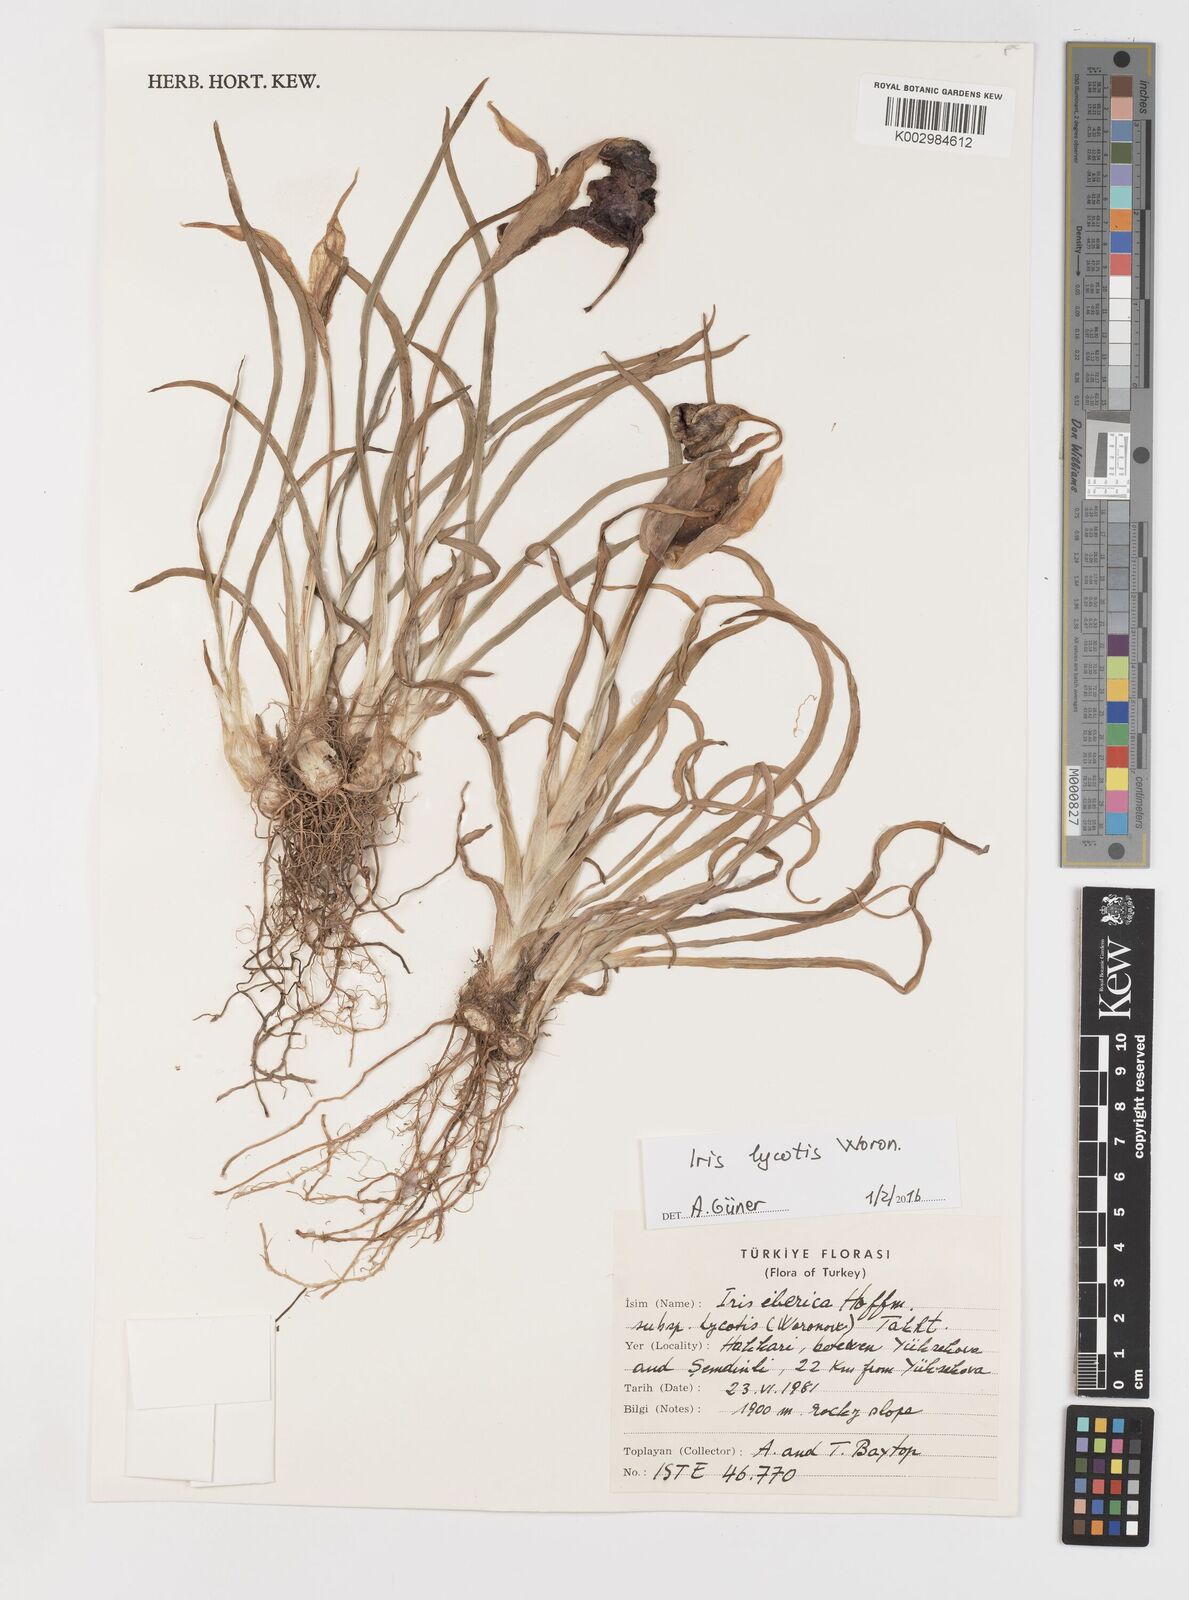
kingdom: Plantae
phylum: Tracheophyta
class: Liliopsida
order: Asparagales
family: Iridaceae
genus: Iris
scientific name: Iris lycotis
